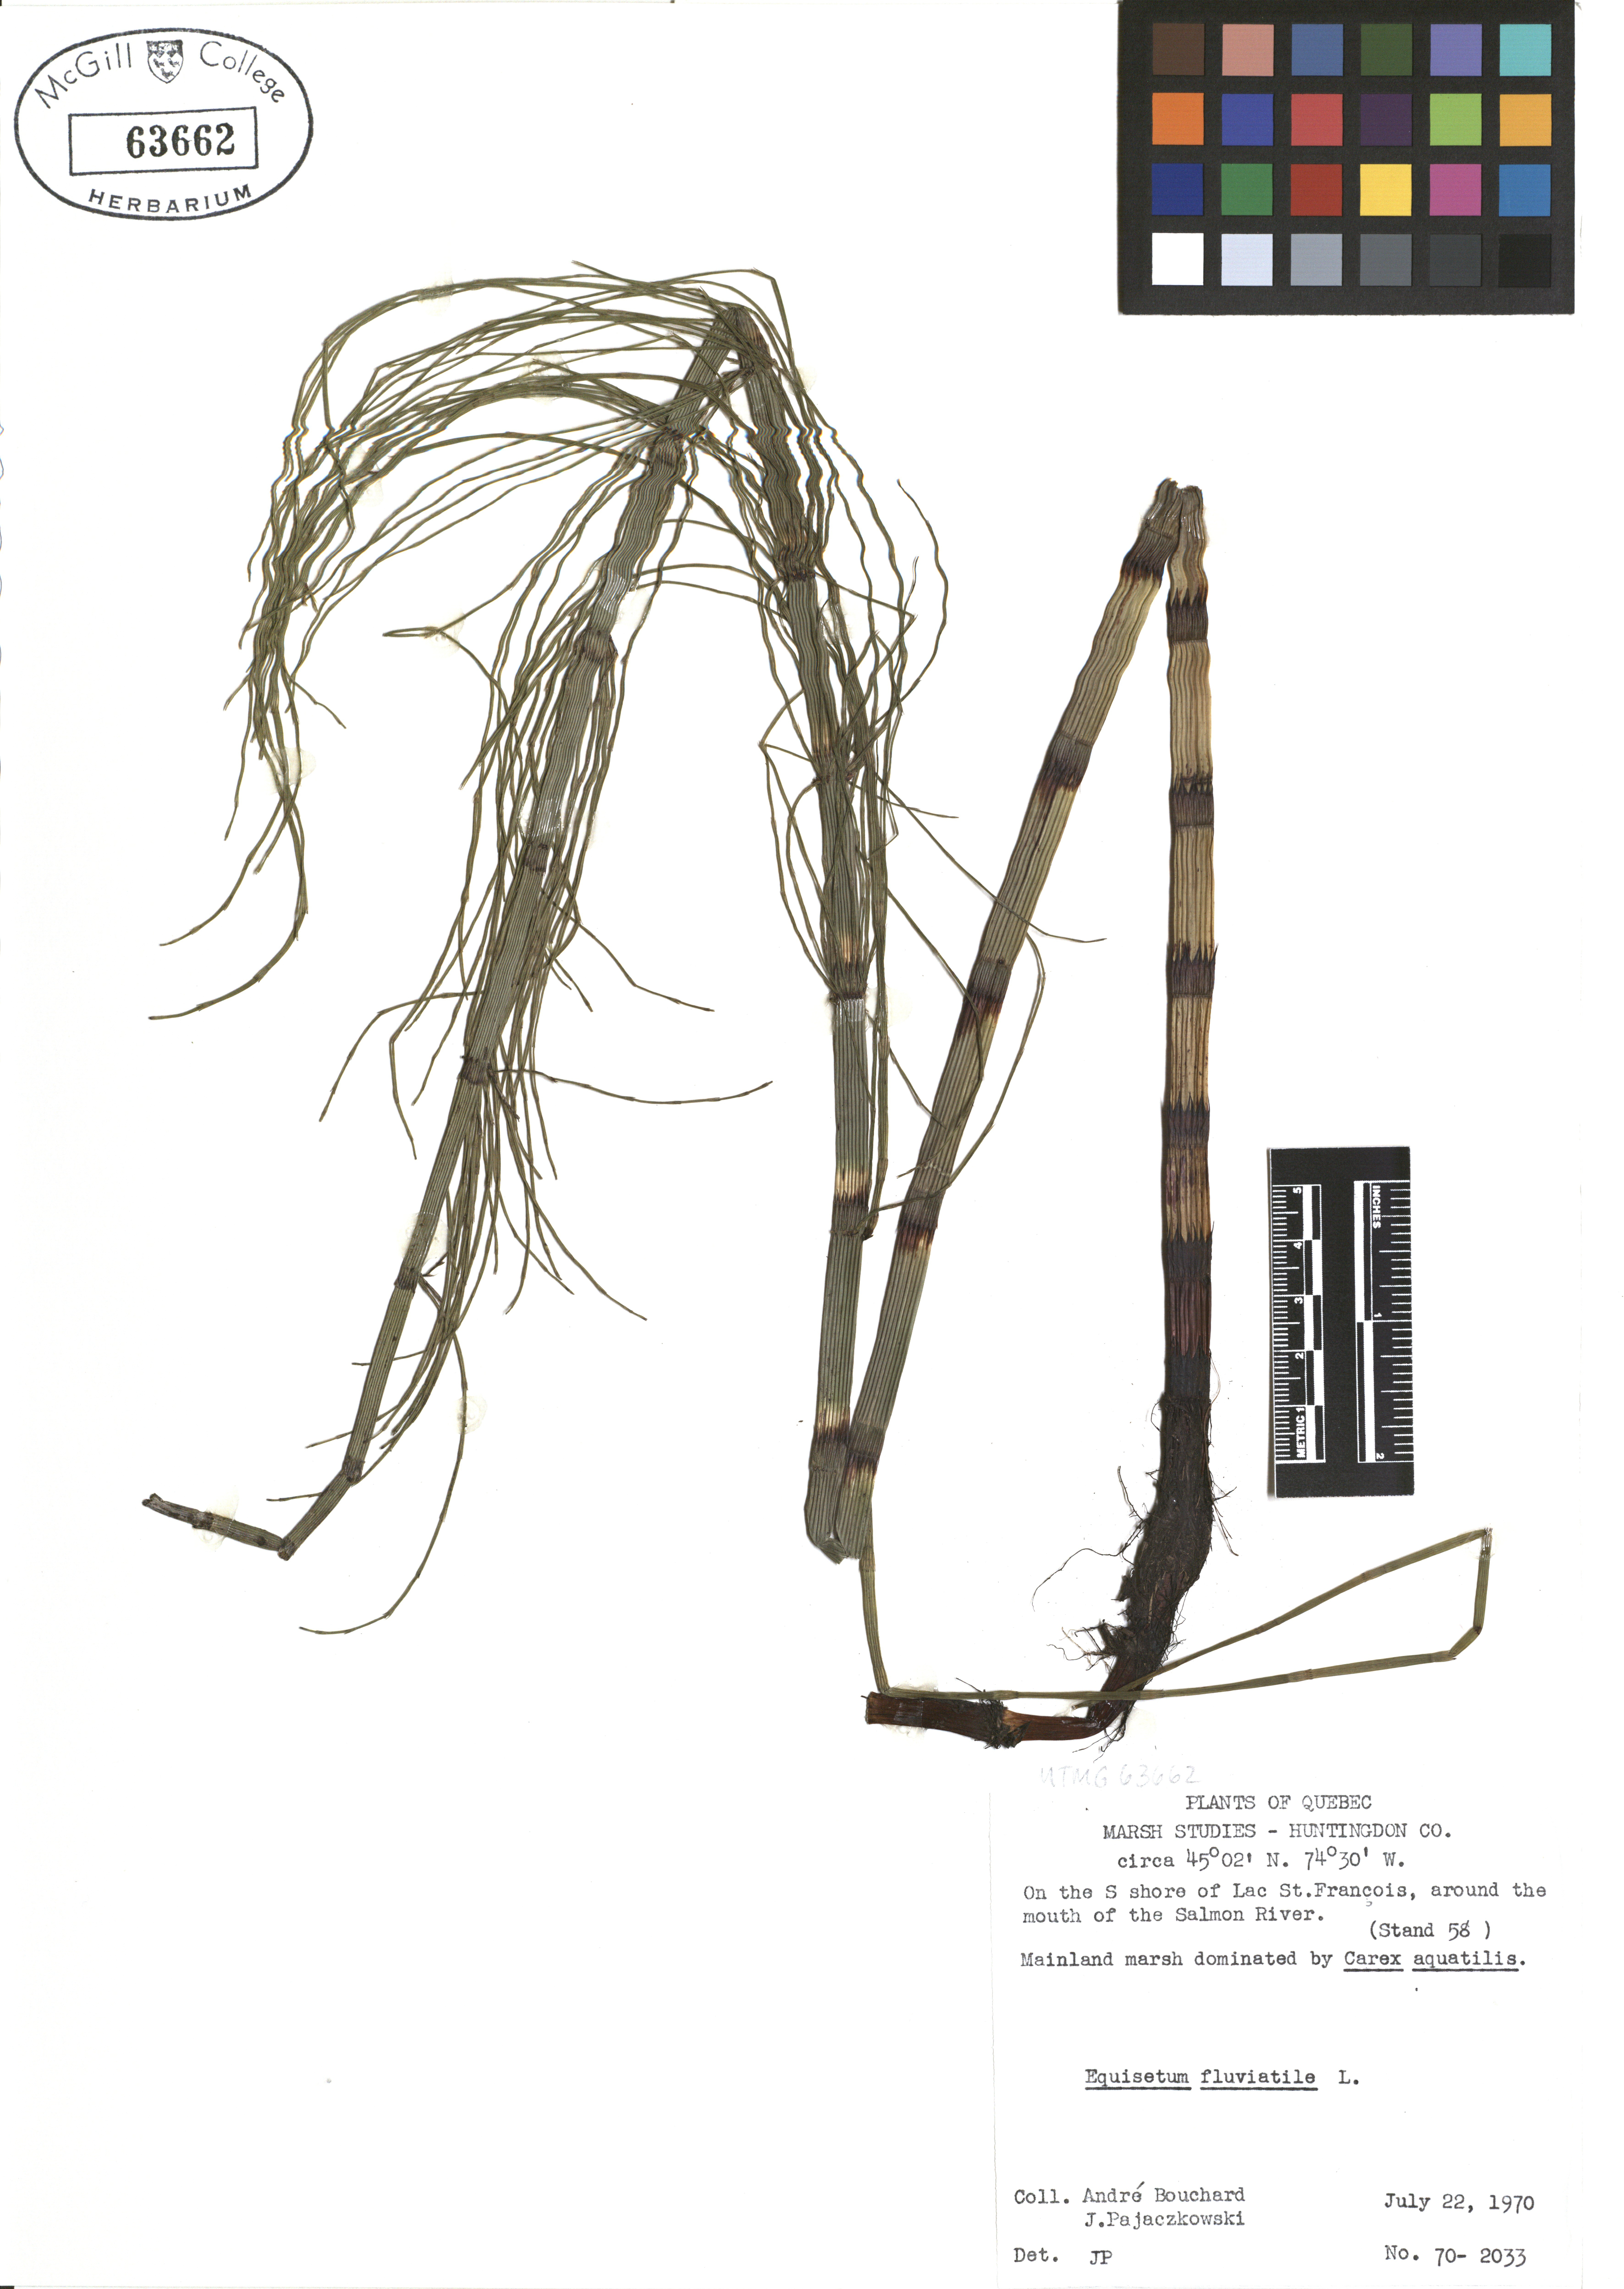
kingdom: Plantae
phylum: Tracheophyta
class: Polypodiopsida
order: Equisetales
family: Equisetaceae
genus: Equisetum
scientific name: Equisetum fluviatile
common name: Water horsetail
